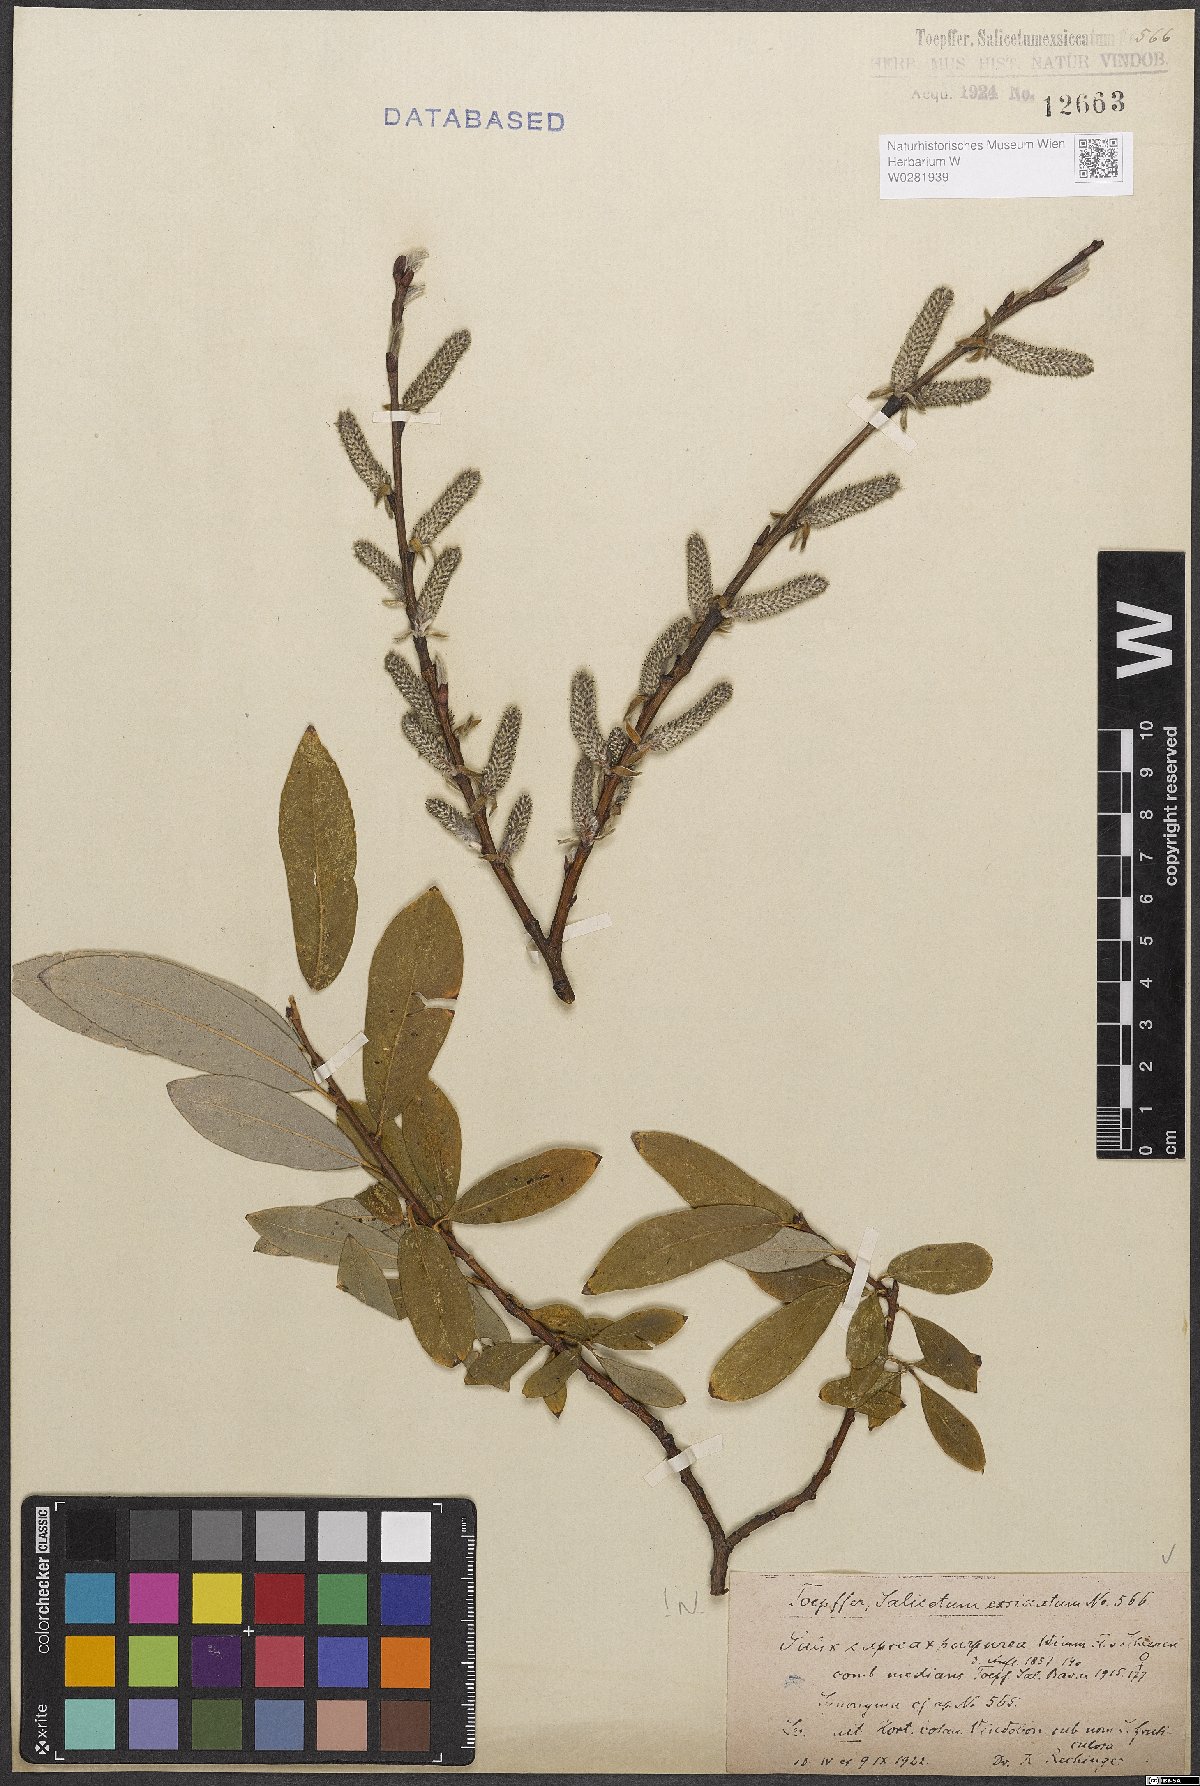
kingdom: Plantae
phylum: Tracheophyta
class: Magnoliopsida
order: Malpighiales
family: Salicaceae
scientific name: Salicaceae
